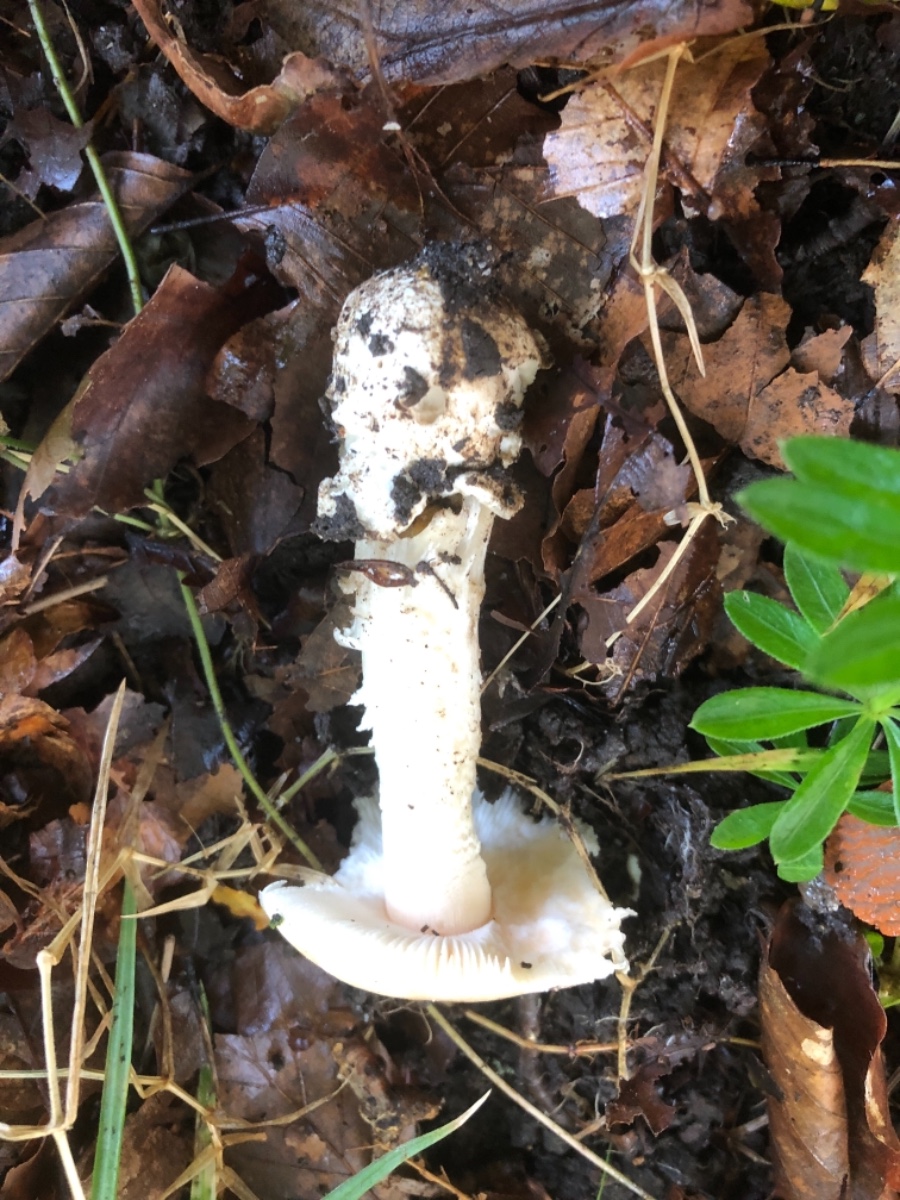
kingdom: Fungi
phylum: Basidiomycota
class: Agaricomycetes
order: Agaricales
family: Amanitaceae
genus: Amanita
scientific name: Amanita lividopallescens
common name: afblegende kam-fluesvamp
